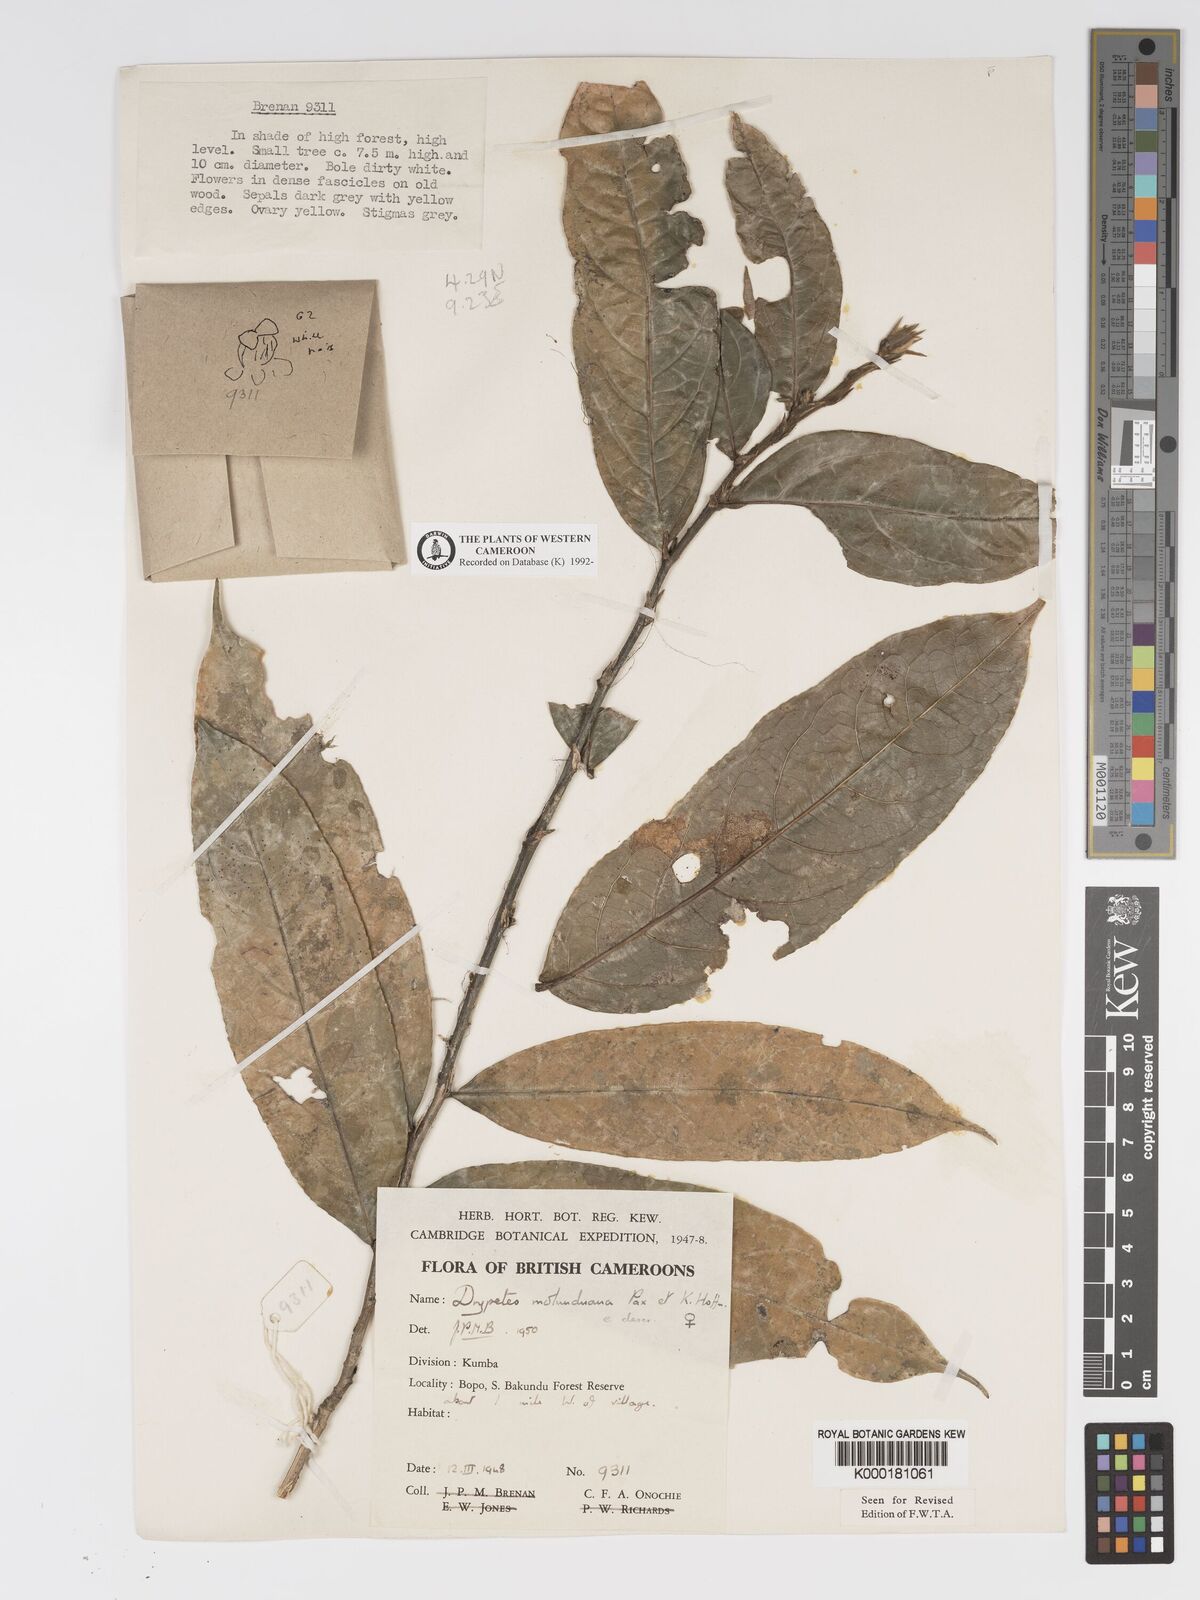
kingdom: Plantae
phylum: Tracheophyta
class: Magnoliopsida
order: Malpighiales
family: Putranjivaceae
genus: Drypetes
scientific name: Drypetes molunduana
